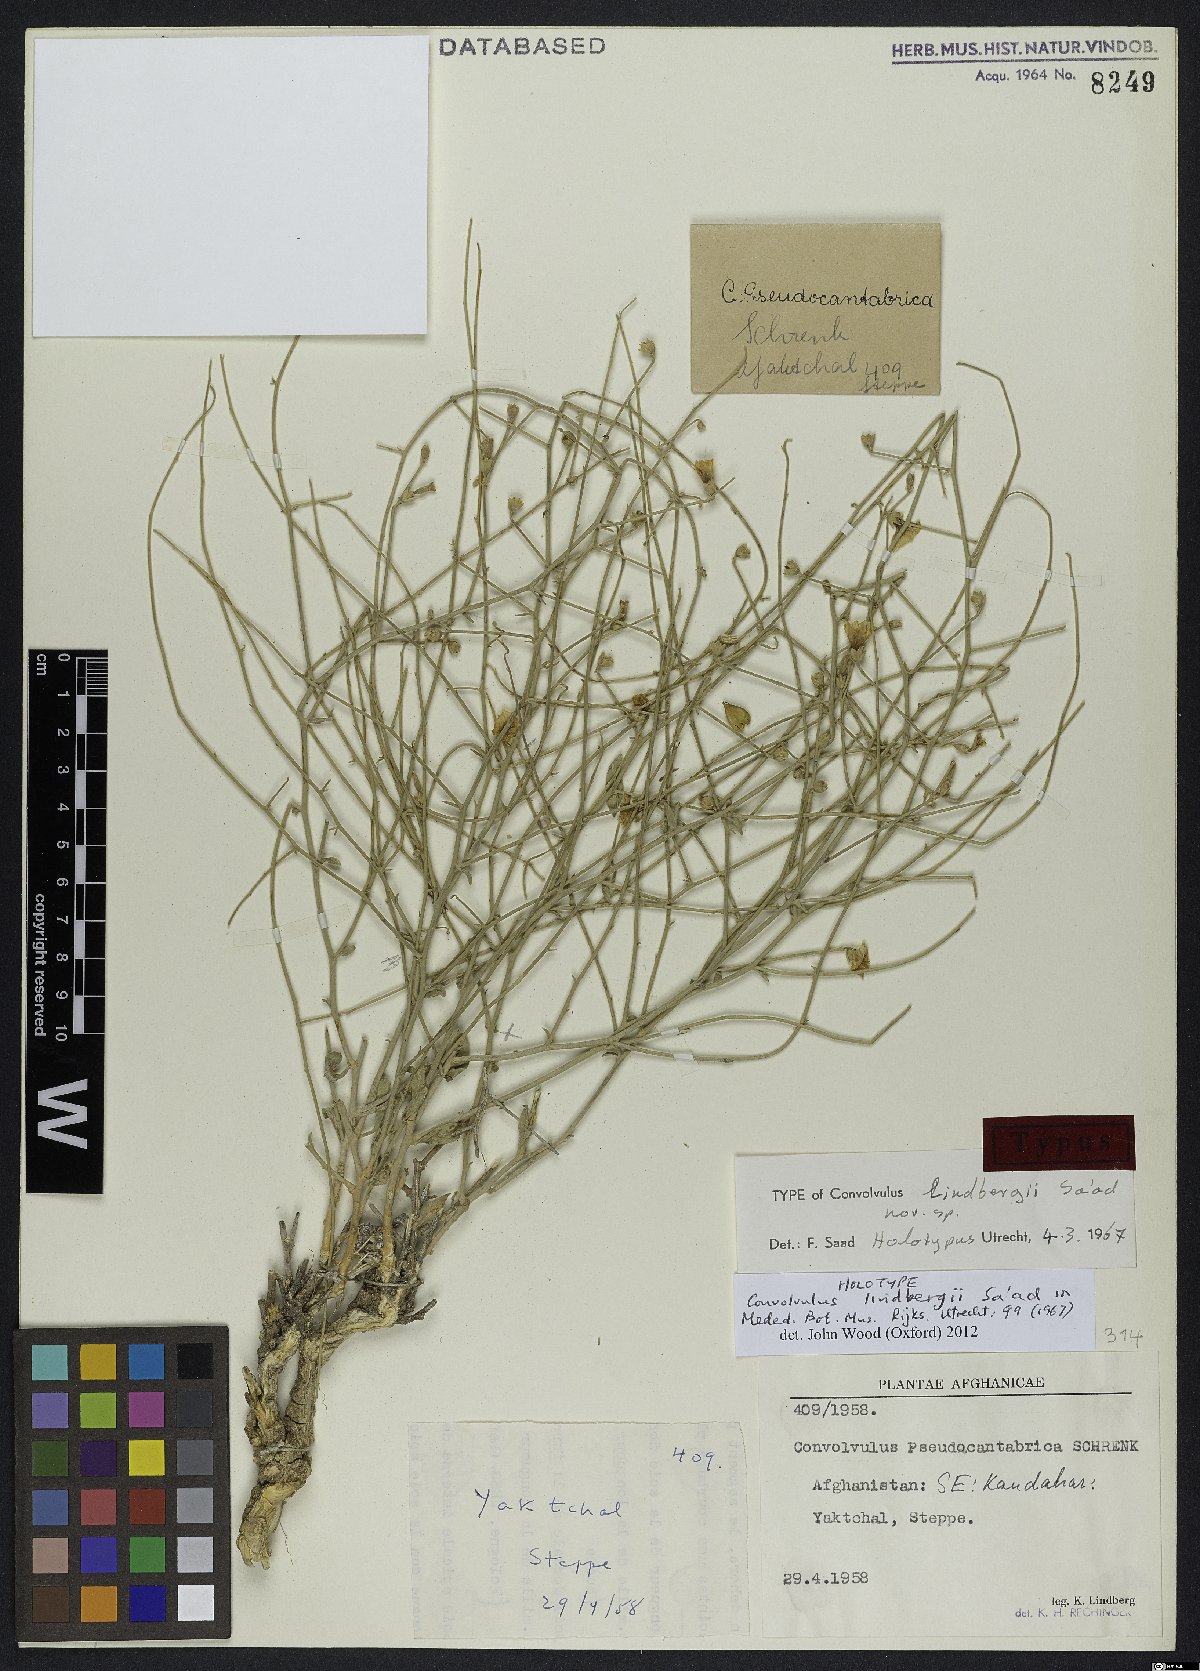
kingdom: Plantae
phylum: Tracheophyta
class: Magnoliopsida
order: Solanales
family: Convolvulaceae
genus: Convolvulus
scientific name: Convolvulus lindbergii
